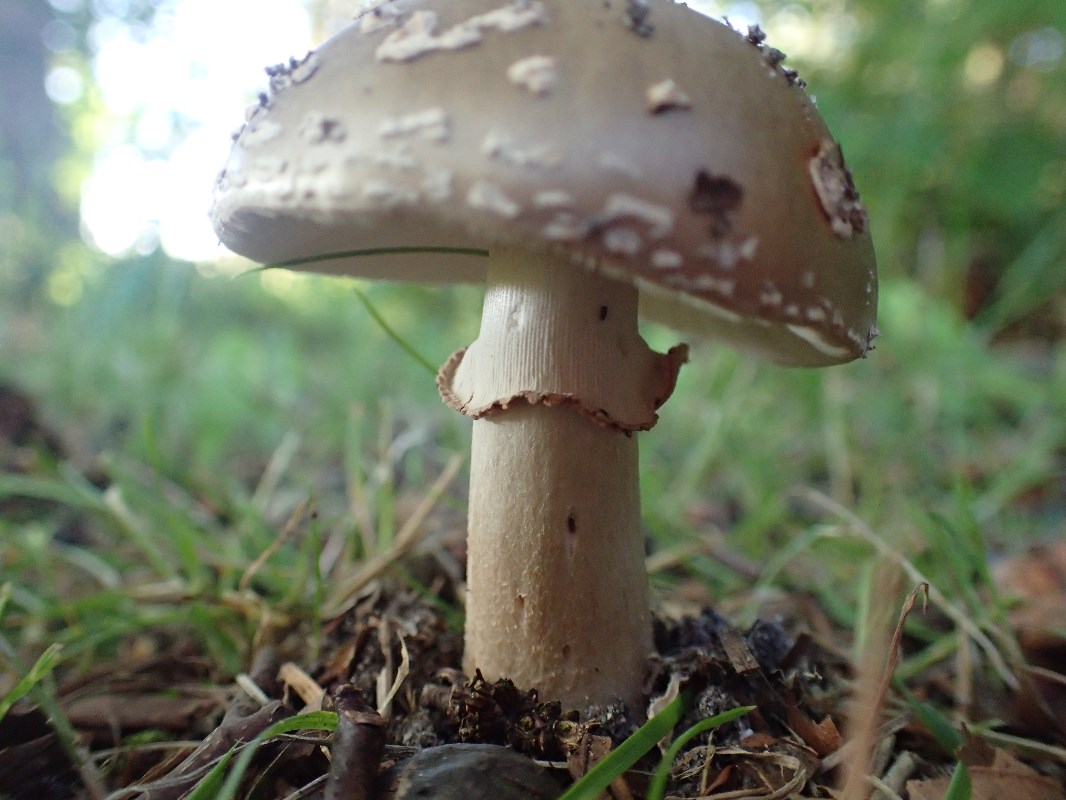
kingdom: Fungi
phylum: Basidiomycota
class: Agaricomycetes
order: Agaricales
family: Amanitaceae
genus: Amanita
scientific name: Amanita rubescens
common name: rødmende fluesvamp
